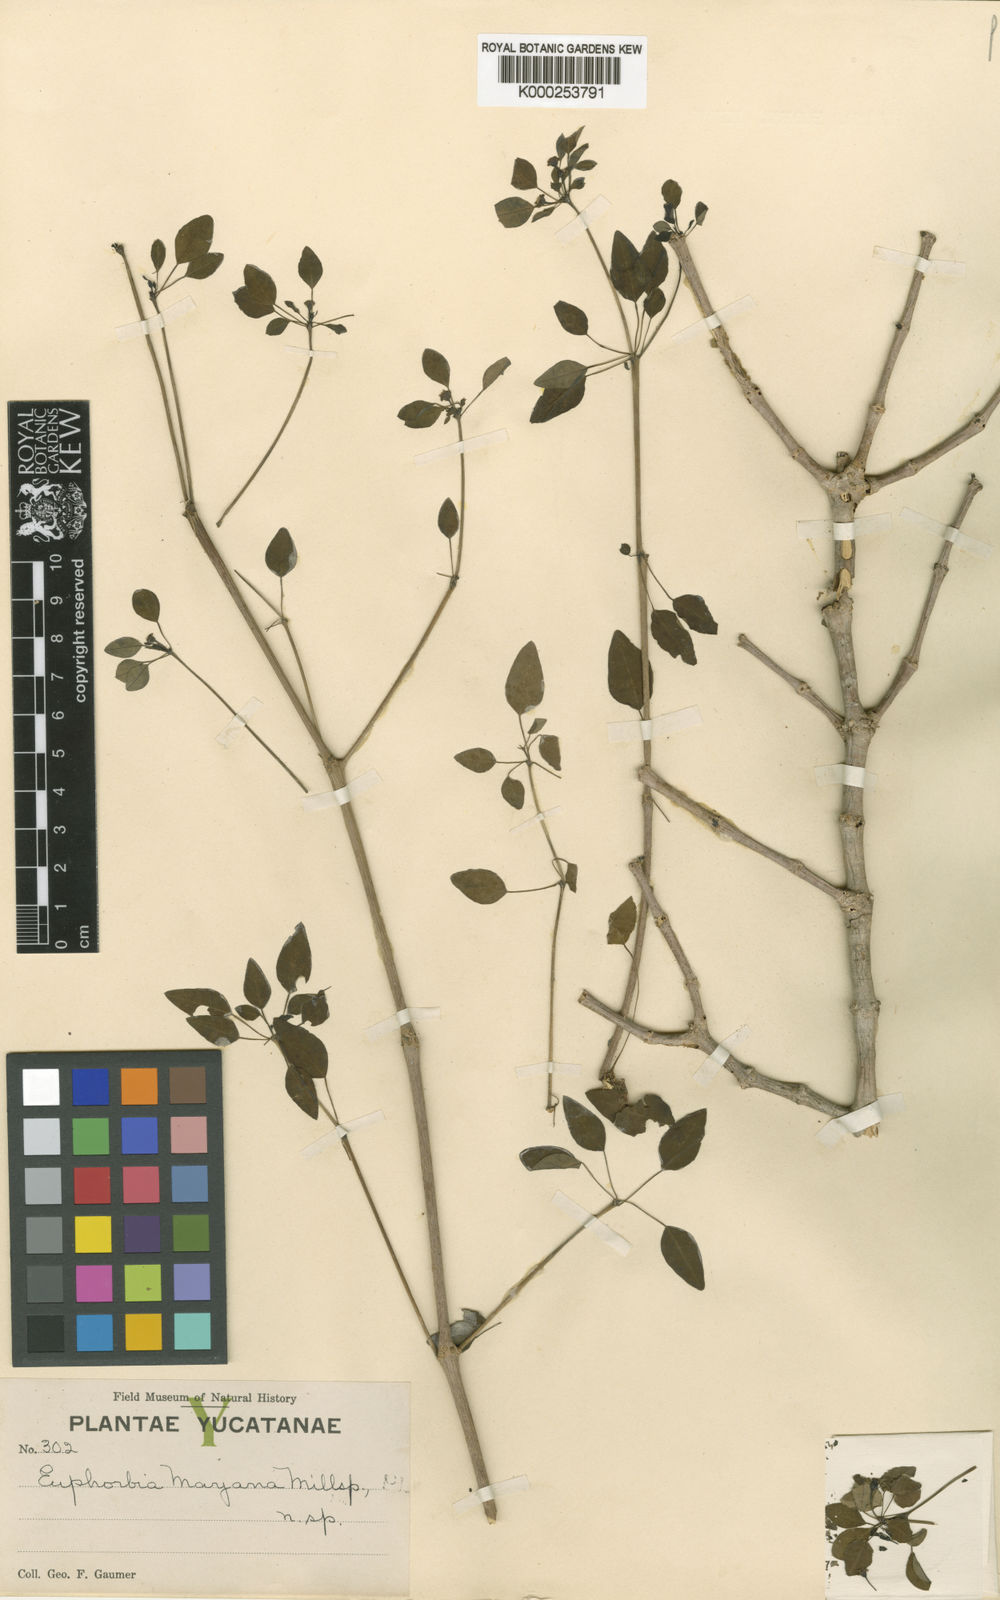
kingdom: Plantae
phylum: Tracheophyta
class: Magnoliopsida
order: Malpighiales
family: Euphorbiaceae
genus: Euphorbia
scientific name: Euphorbia schlechtendalii
